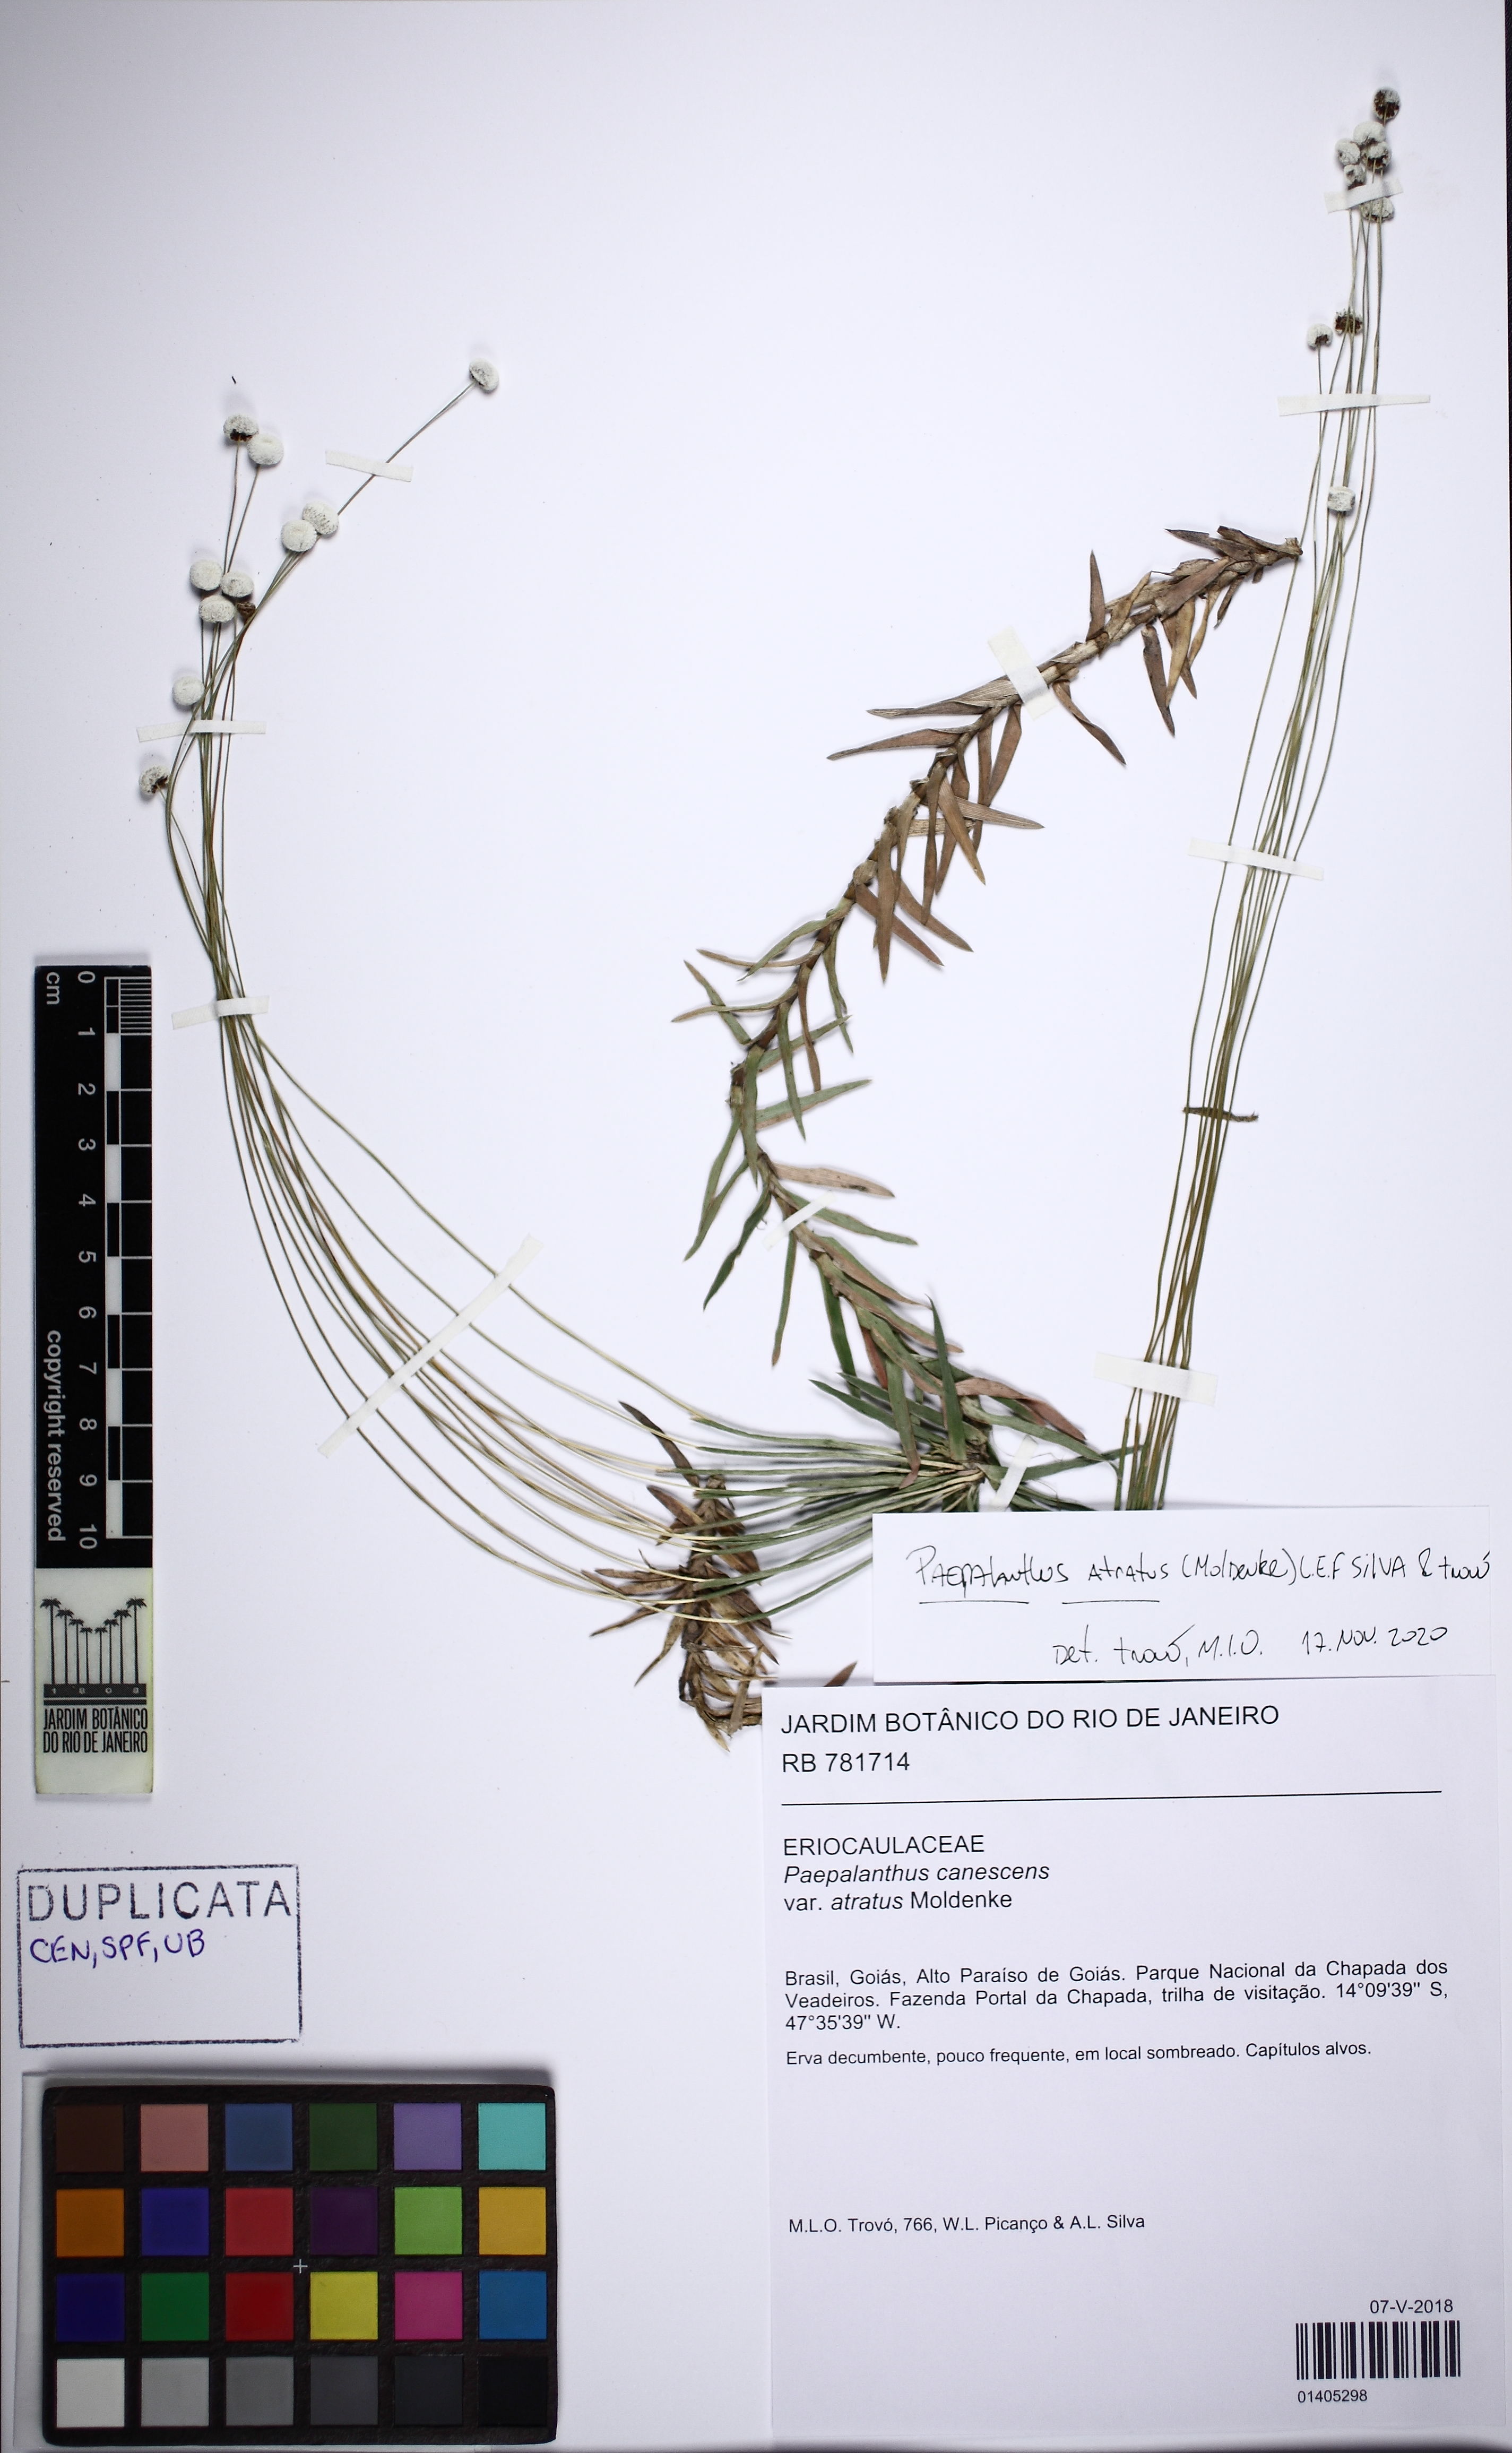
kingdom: Plantae
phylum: Tracheophyta
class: Liliopsida
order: Poales
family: Eriocaulaceae
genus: Paepalanthus
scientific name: Paepalanthus atratus
